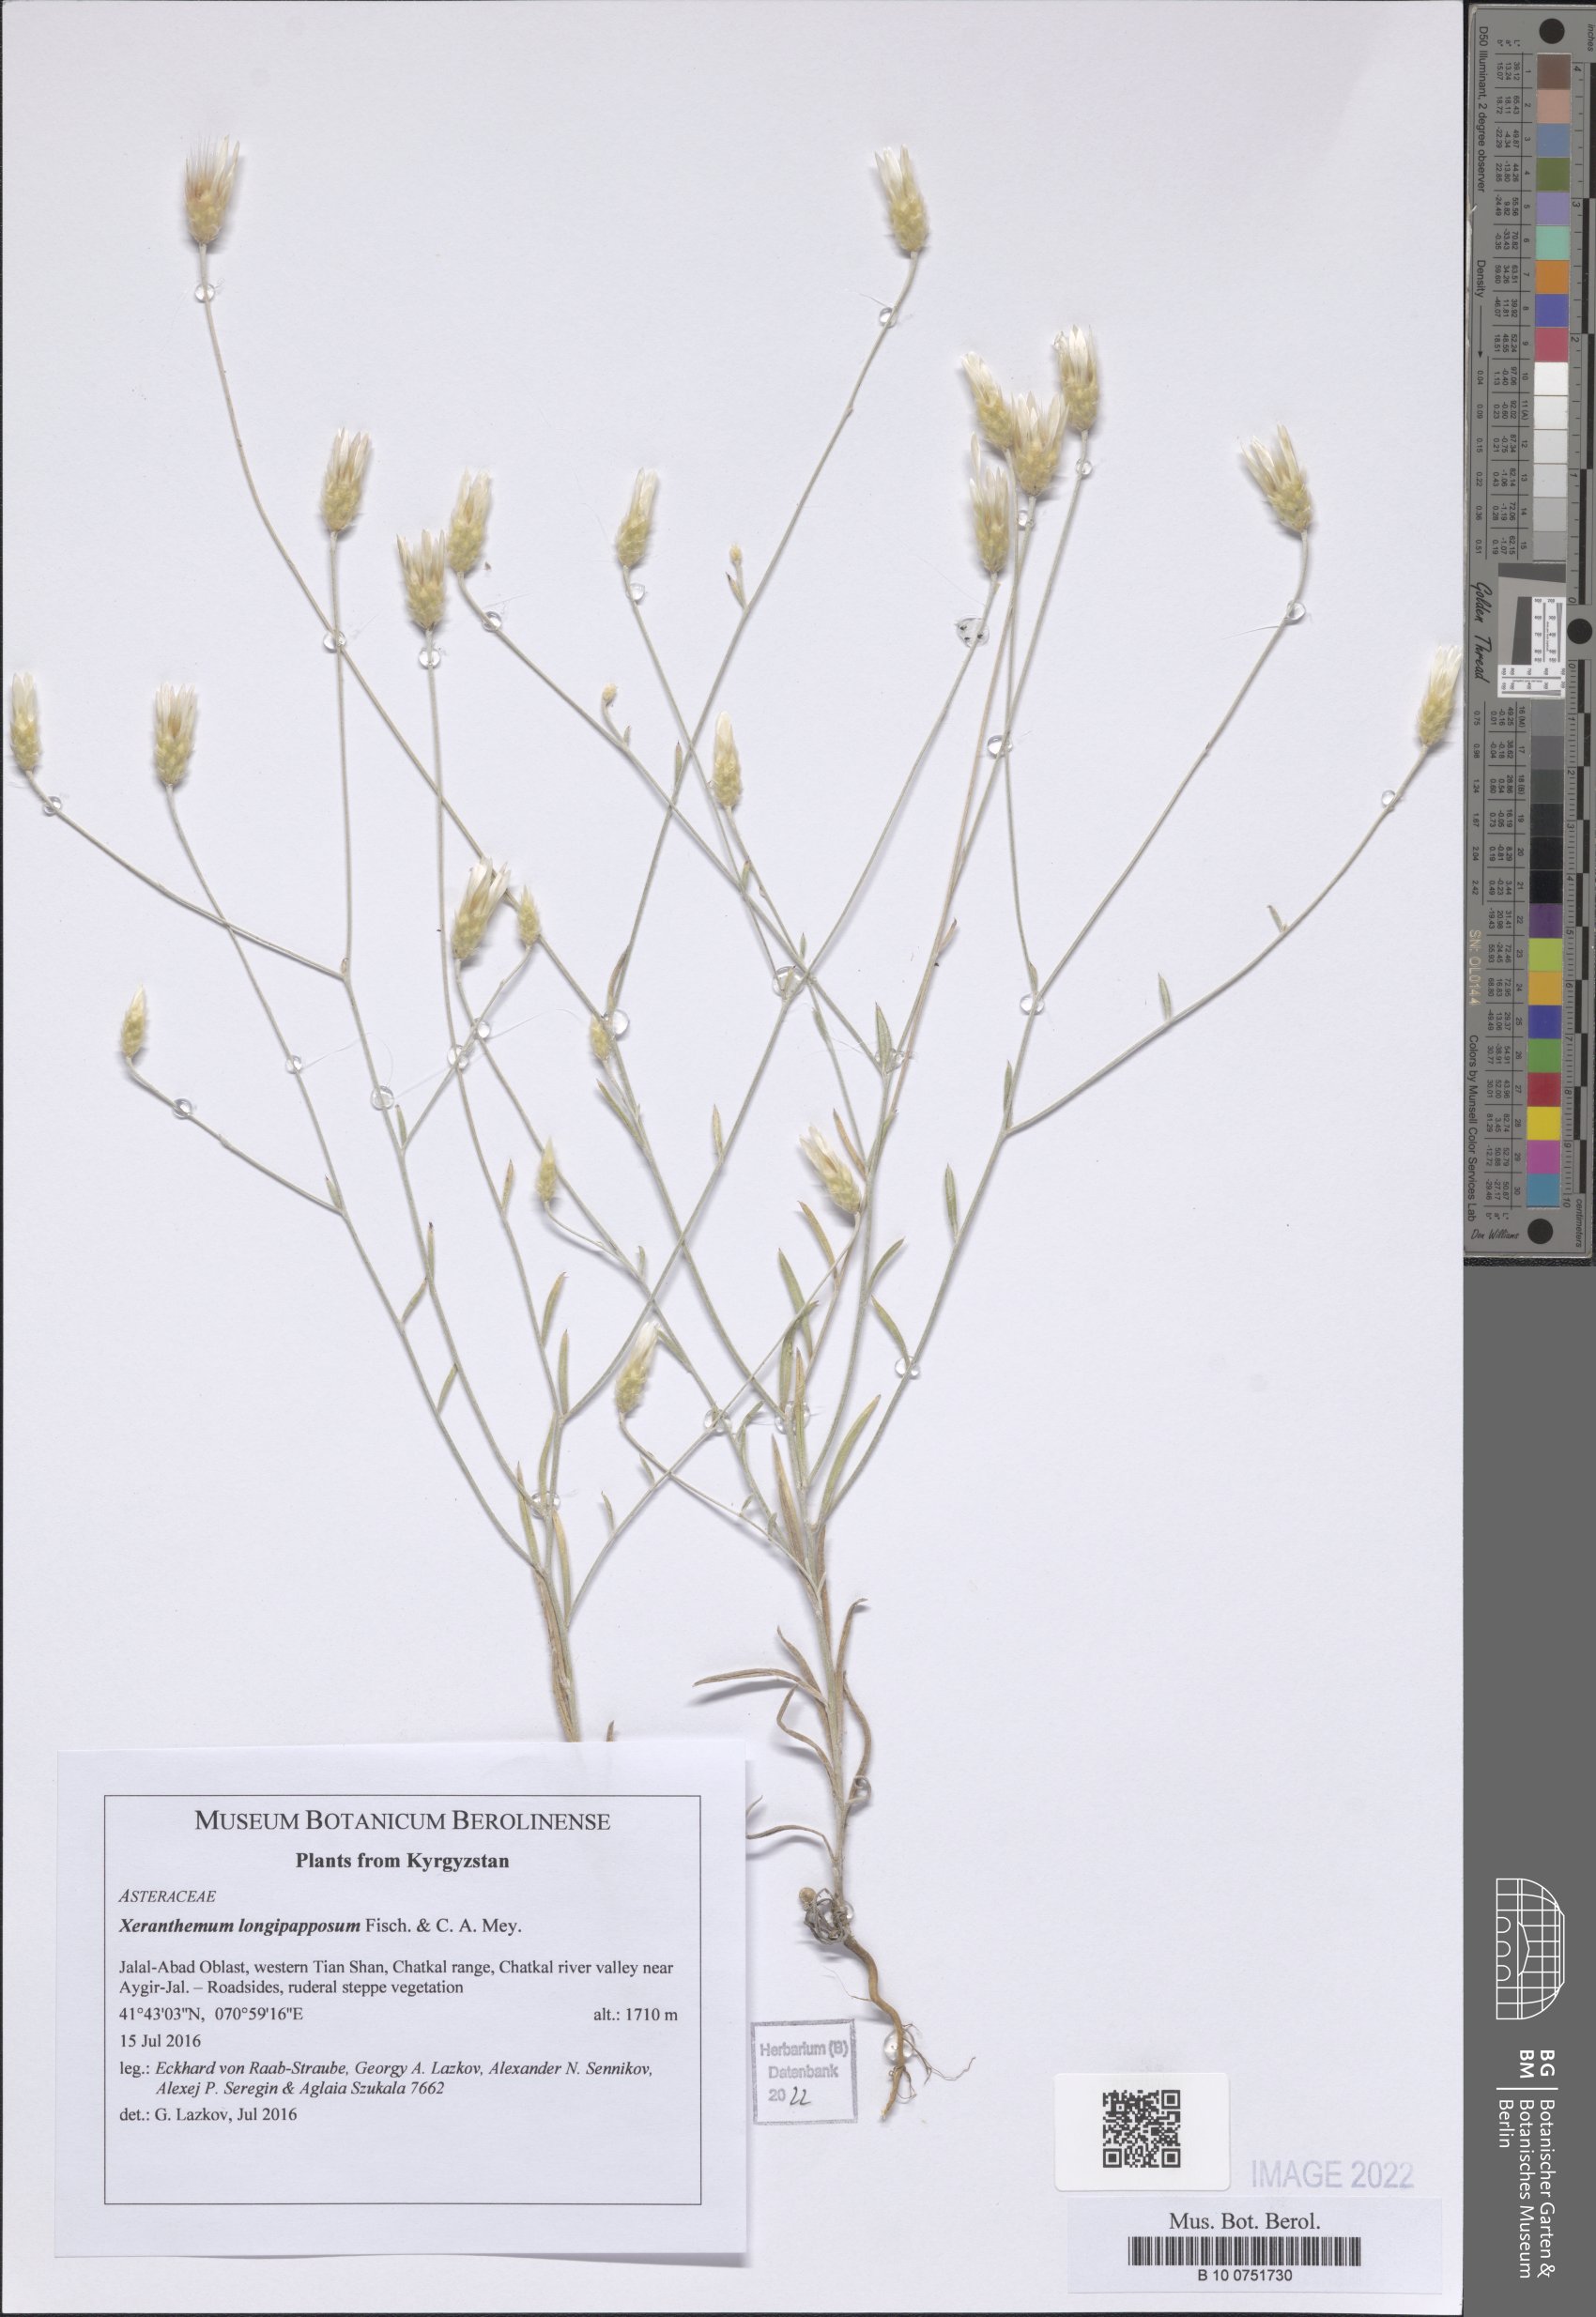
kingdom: Plantae
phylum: Tracheophyta
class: Magnoliopsida
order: Asterales
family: Asteraceae
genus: Xeranthemum
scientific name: Xeranthemum annuum
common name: Immortelle
